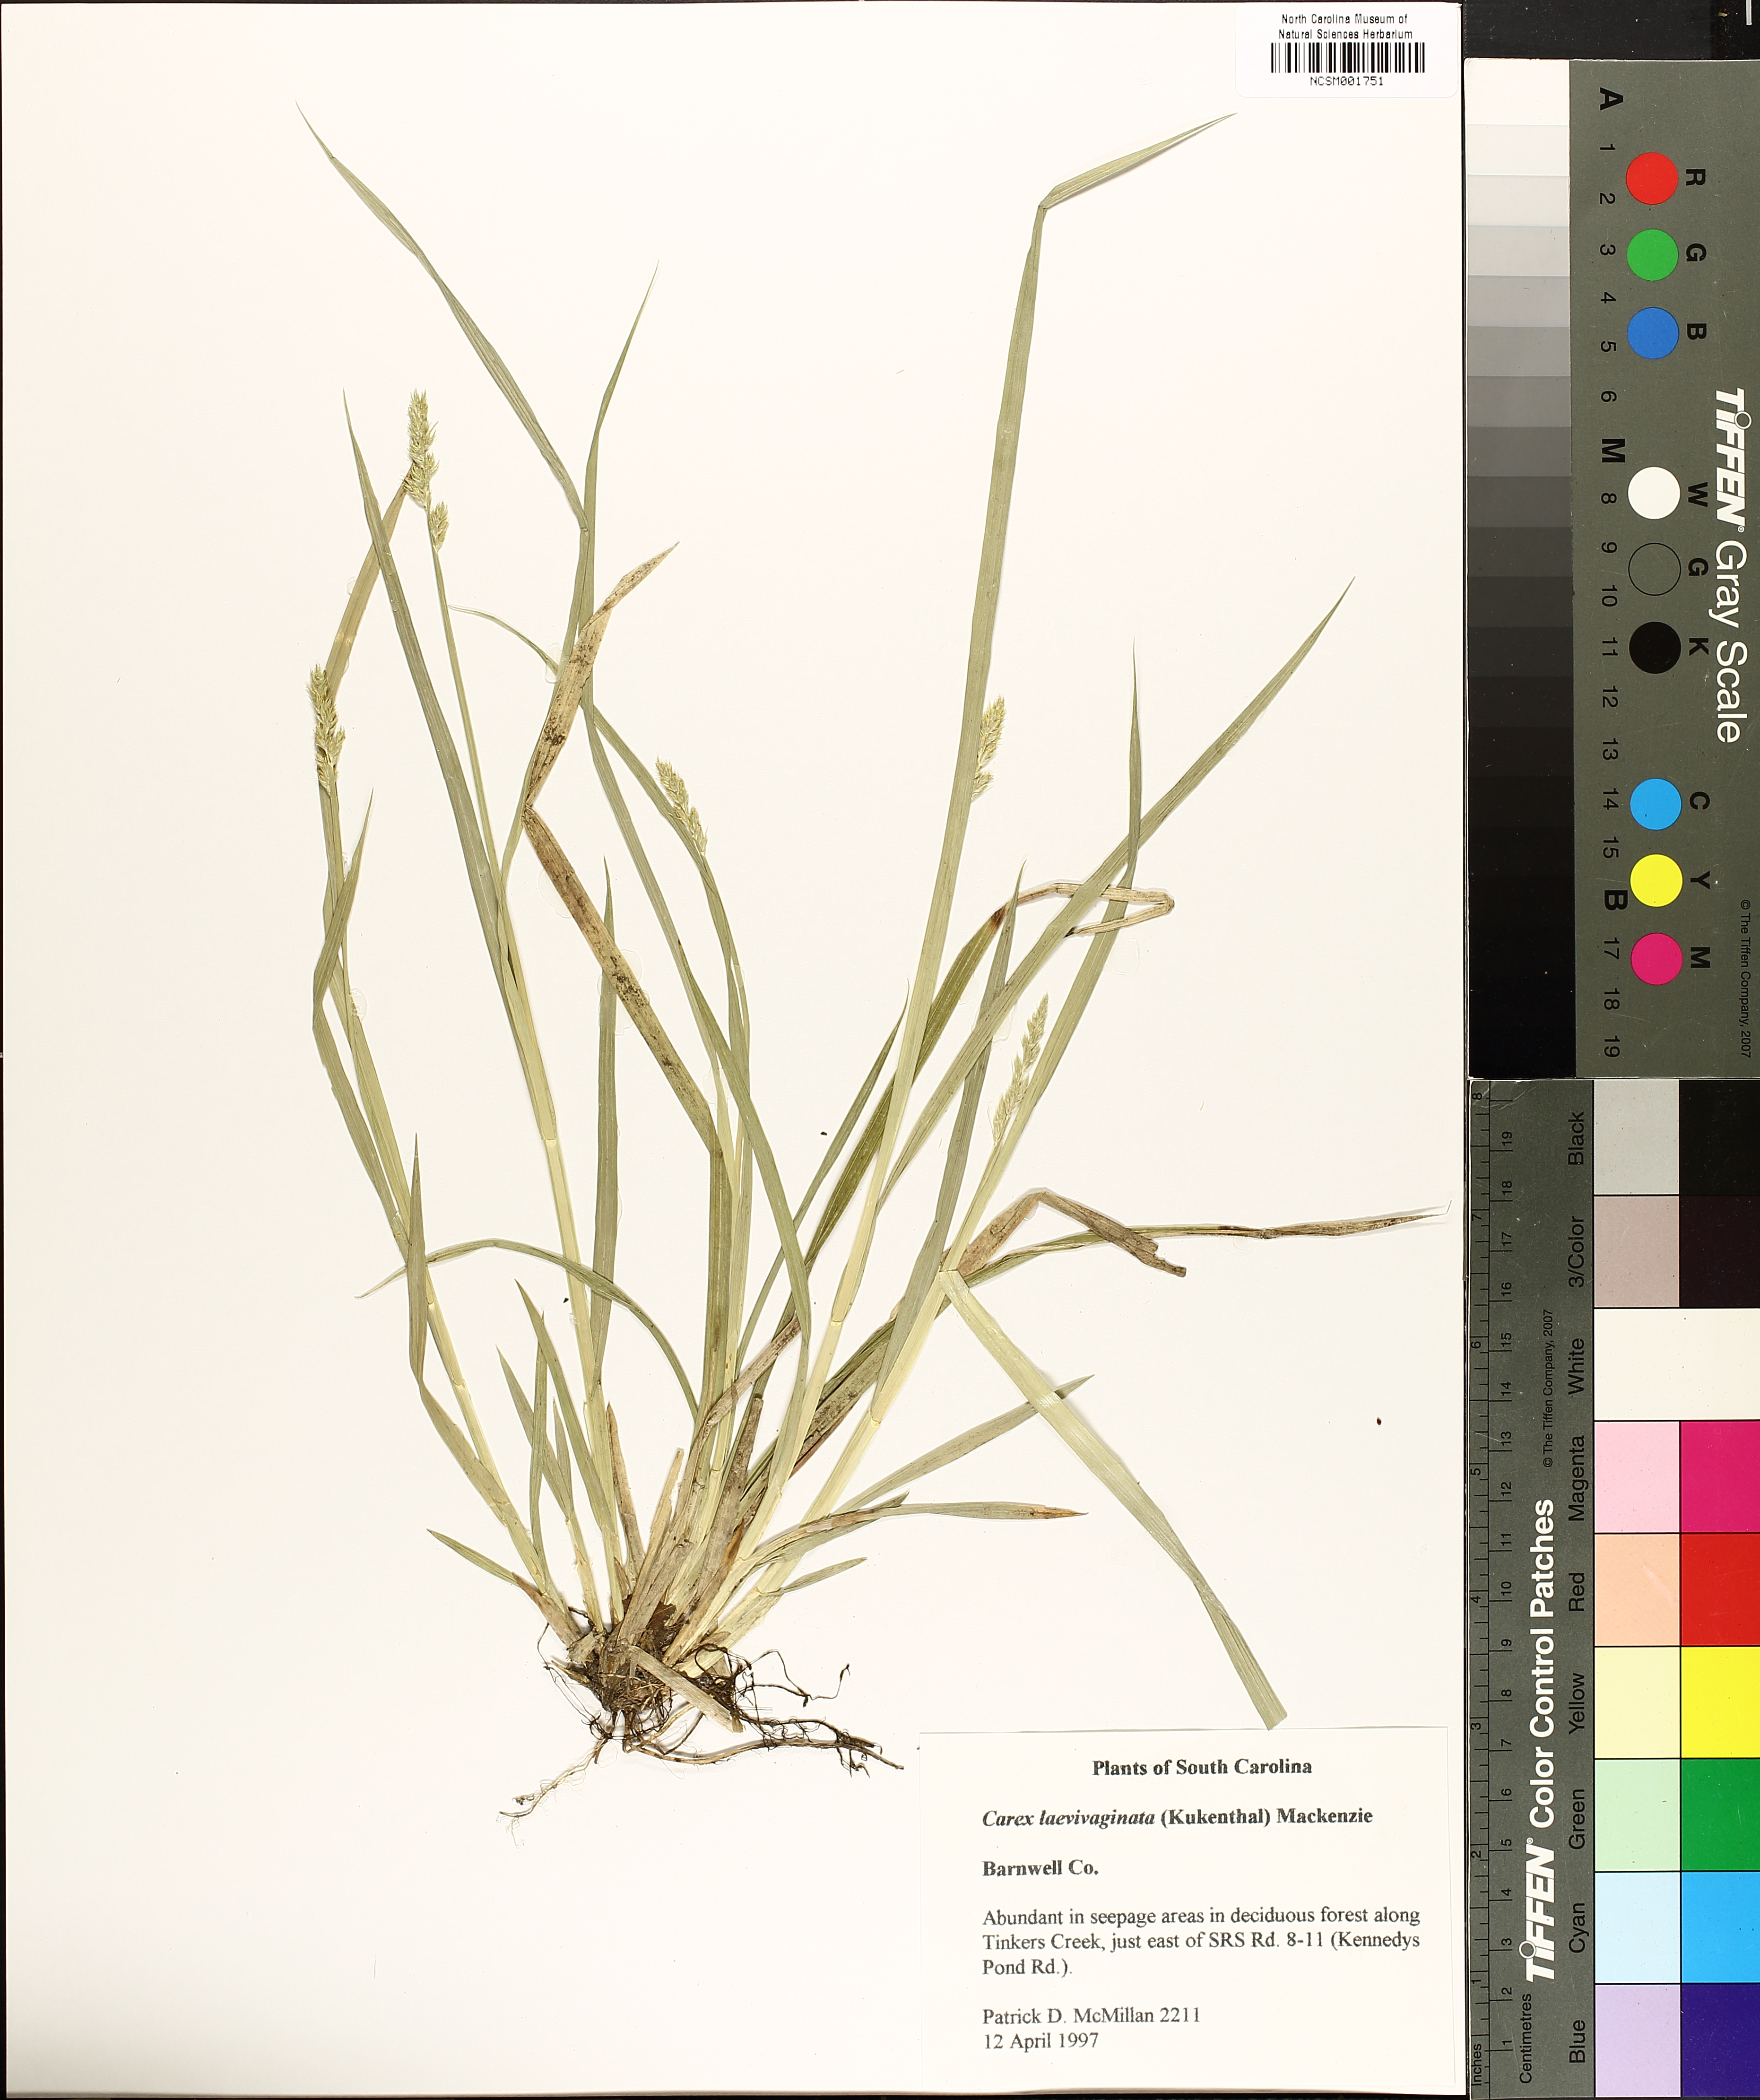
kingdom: Plantae
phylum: Tracheophyta
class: Liliopsida
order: Poales
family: Cyperaceae
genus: Carex
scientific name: Carex laevivaginata
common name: Smooth-sheathed fox sedge
